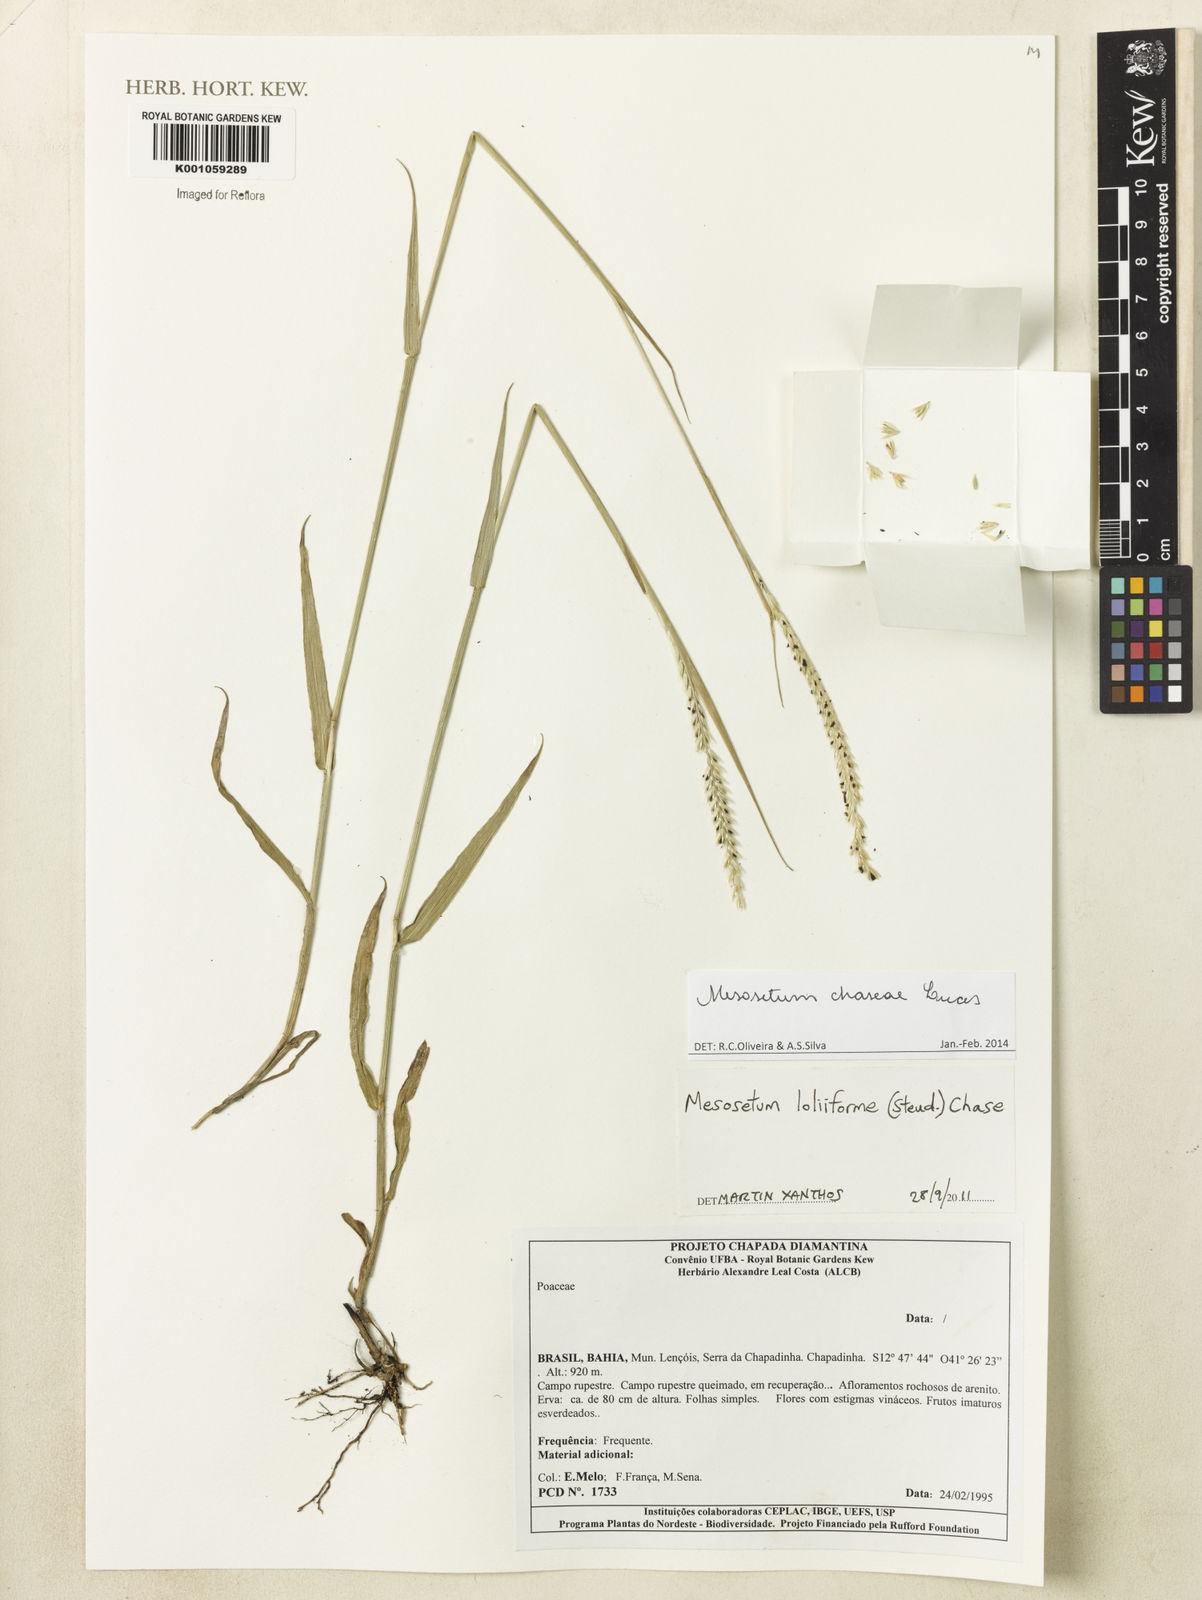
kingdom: Plantae
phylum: Tracheophyta
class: Liliopsida
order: Poales
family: Poaceae
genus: Mesosetum
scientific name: Mesosetum chaseae
